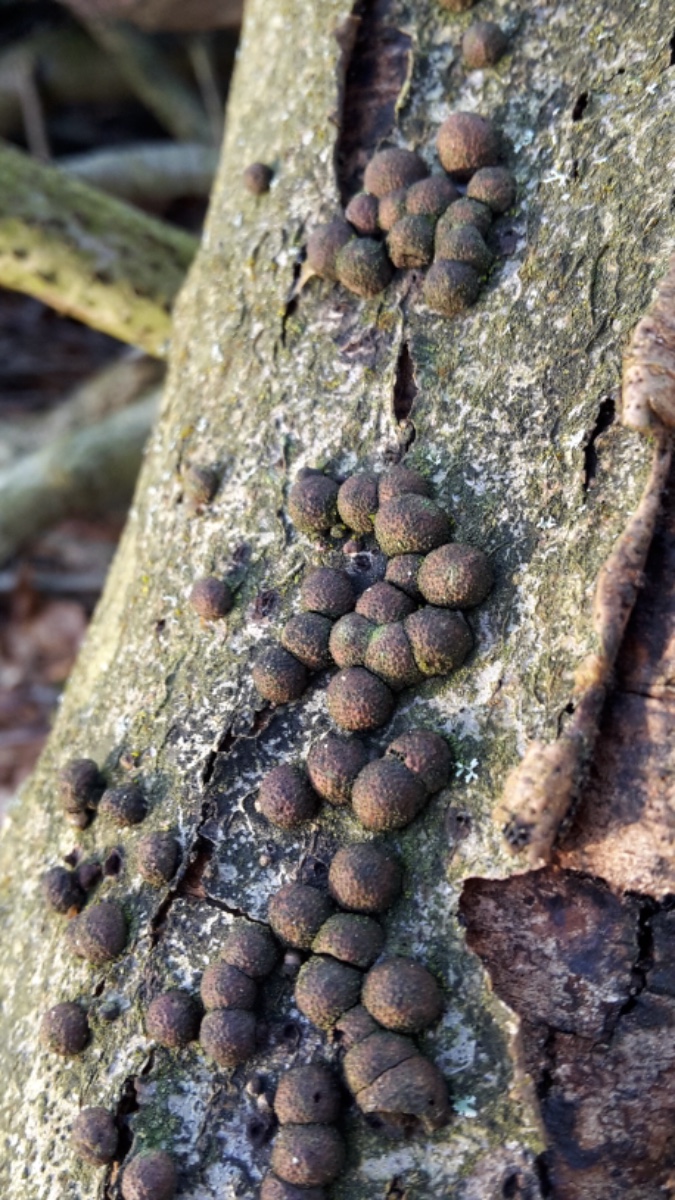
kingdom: Fungi
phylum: Ascomycota
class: Sordariomycetes
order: Xylariales
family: Hypoxylaceae
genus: Hypoxylon
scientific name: Hypoxylon fragiforme
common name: kuljordbær
